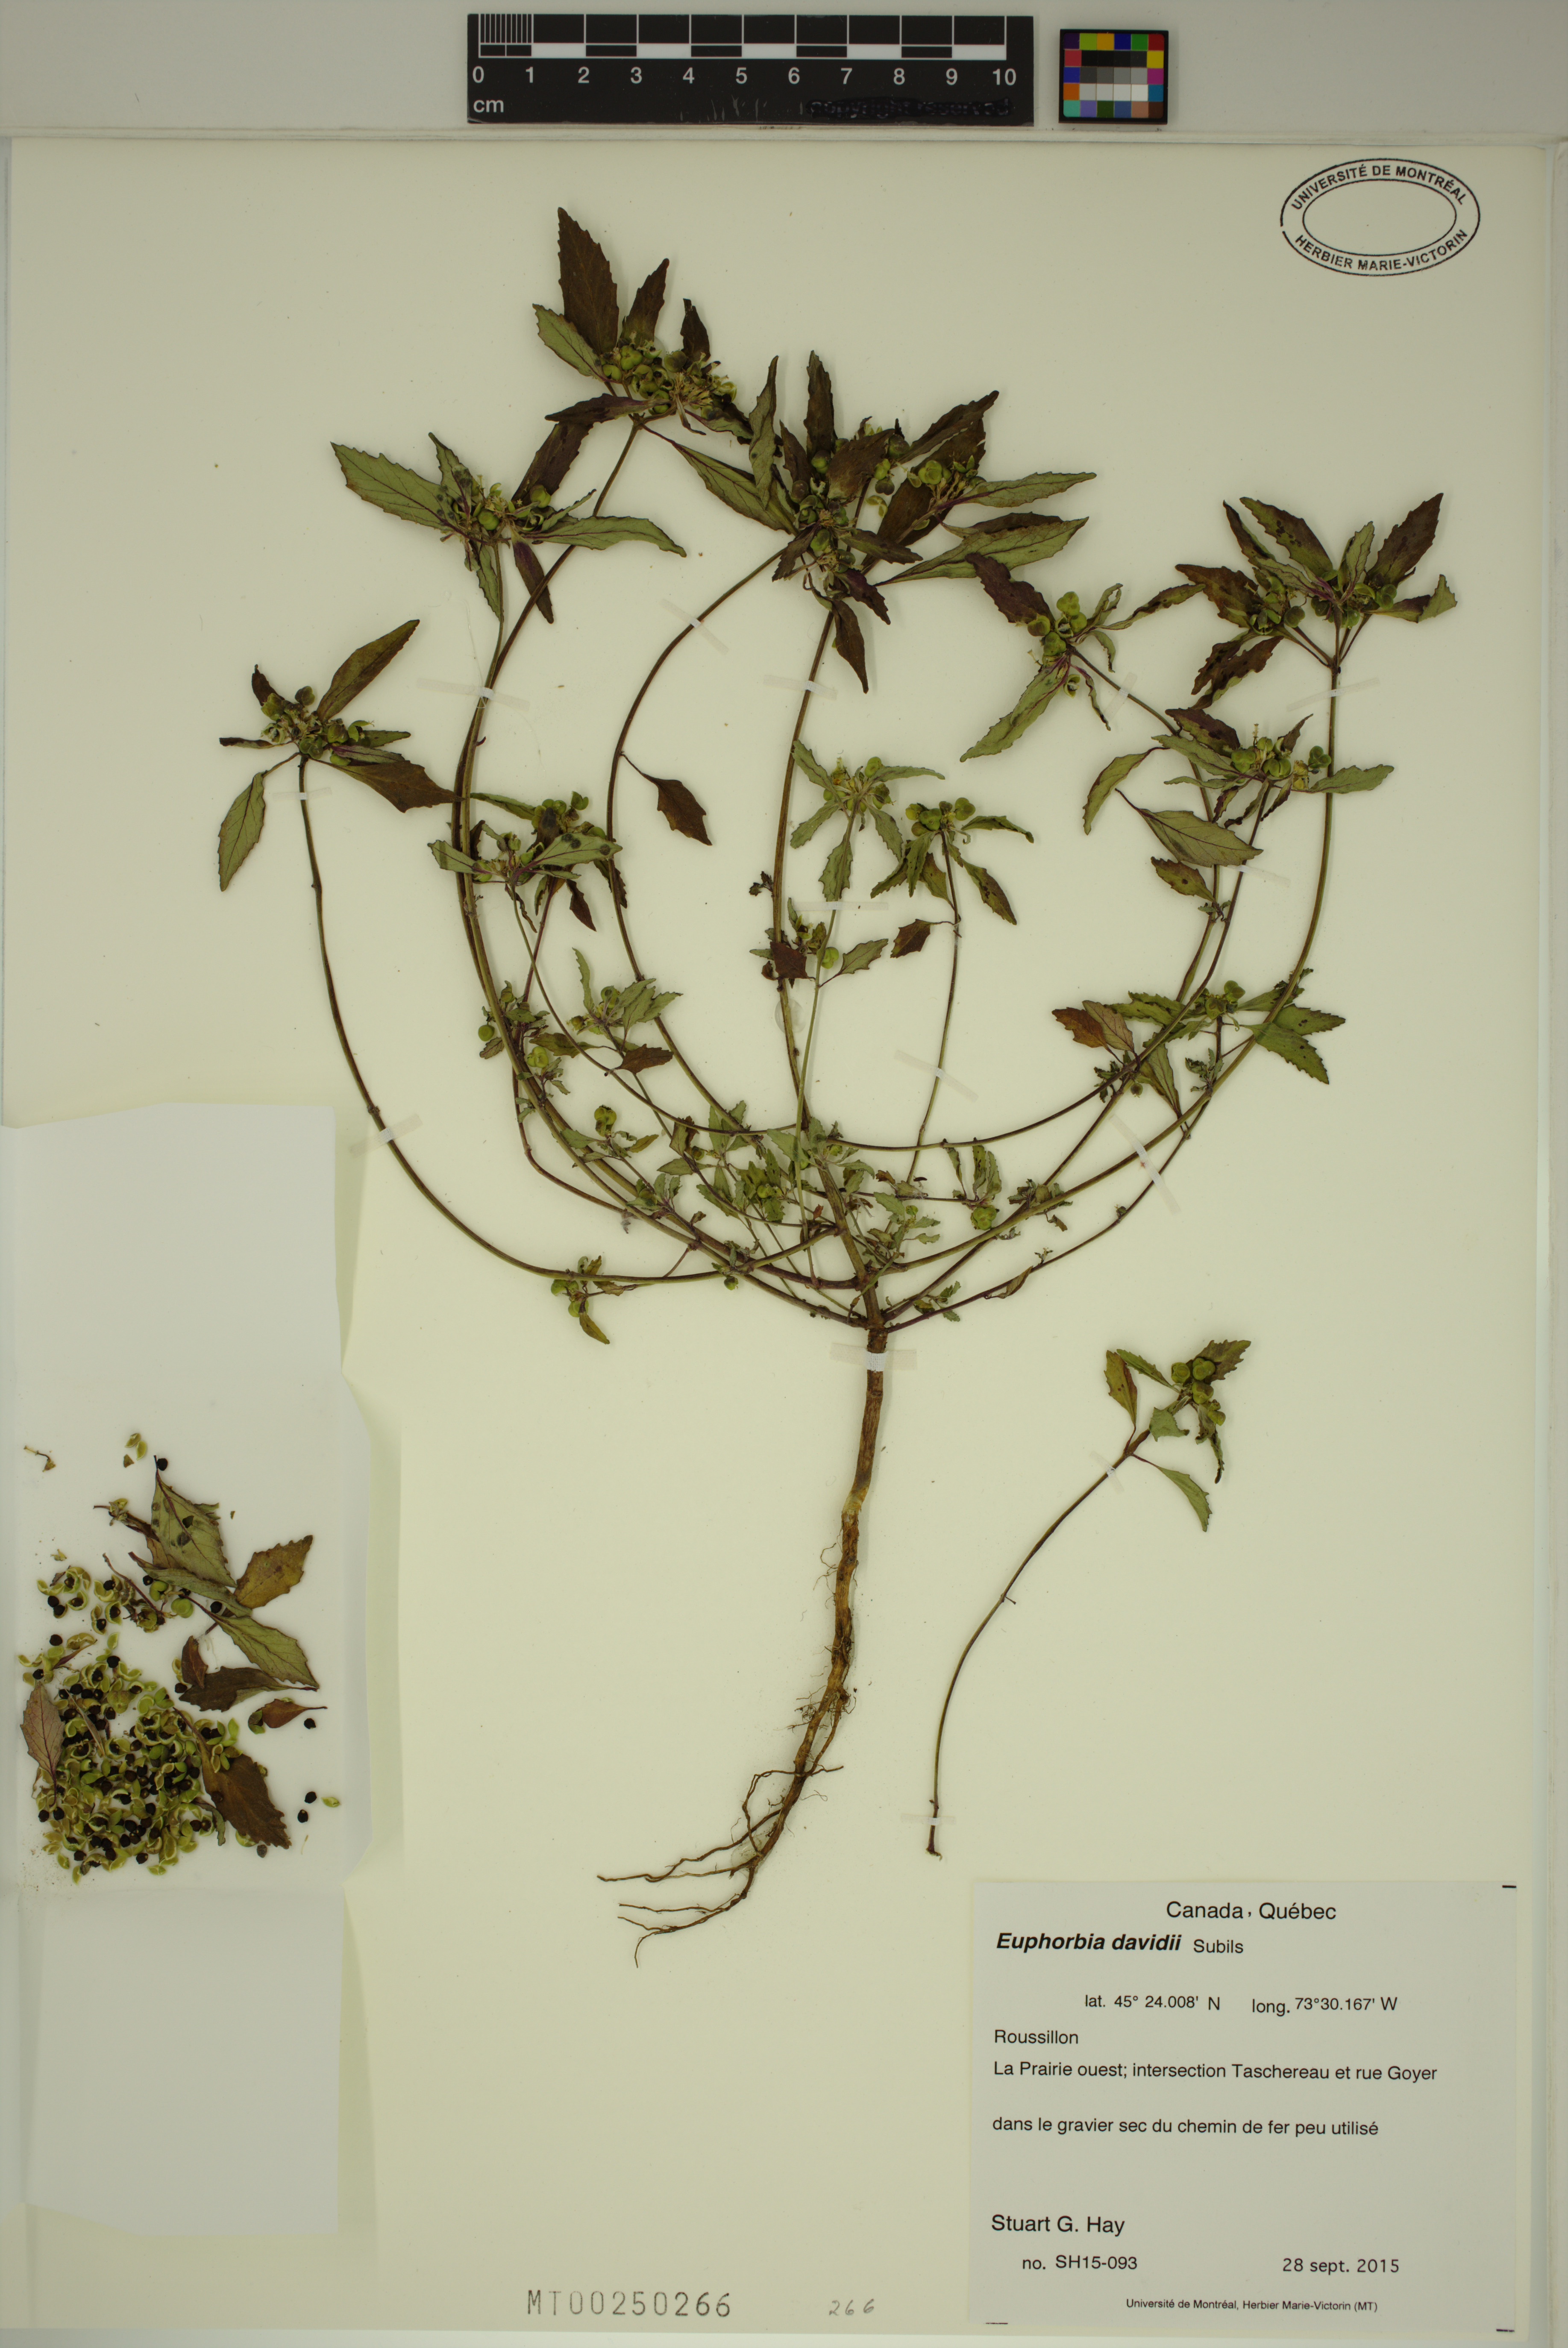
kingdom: Plantae
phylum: Tracheophyta
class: Magnoliopsida
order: Malpighiales
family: Euphorbiaceae
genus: Euphorbia
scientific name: Euphorbia davidii
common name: David's spurge
